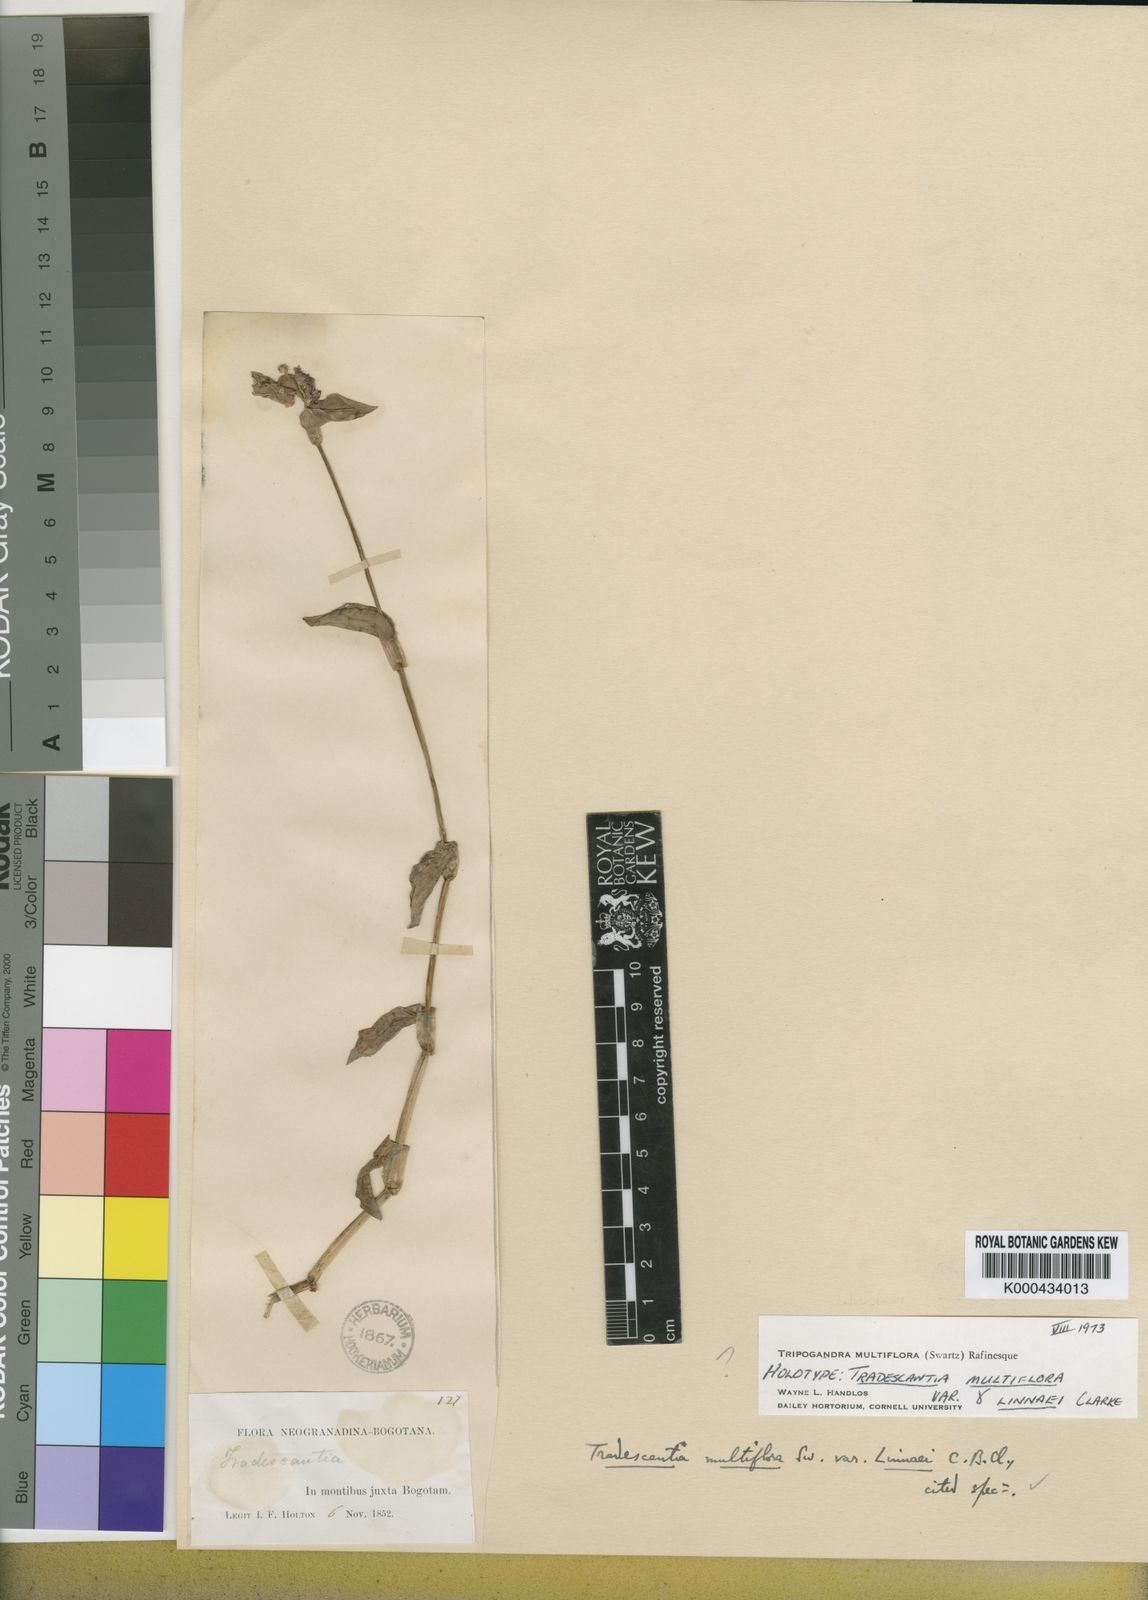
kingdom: Plantae
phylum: Tracheophyta
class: Liliopsida
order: Commelinales
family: Commelinaceae
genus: Callisia
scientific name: Callisia procumbens
